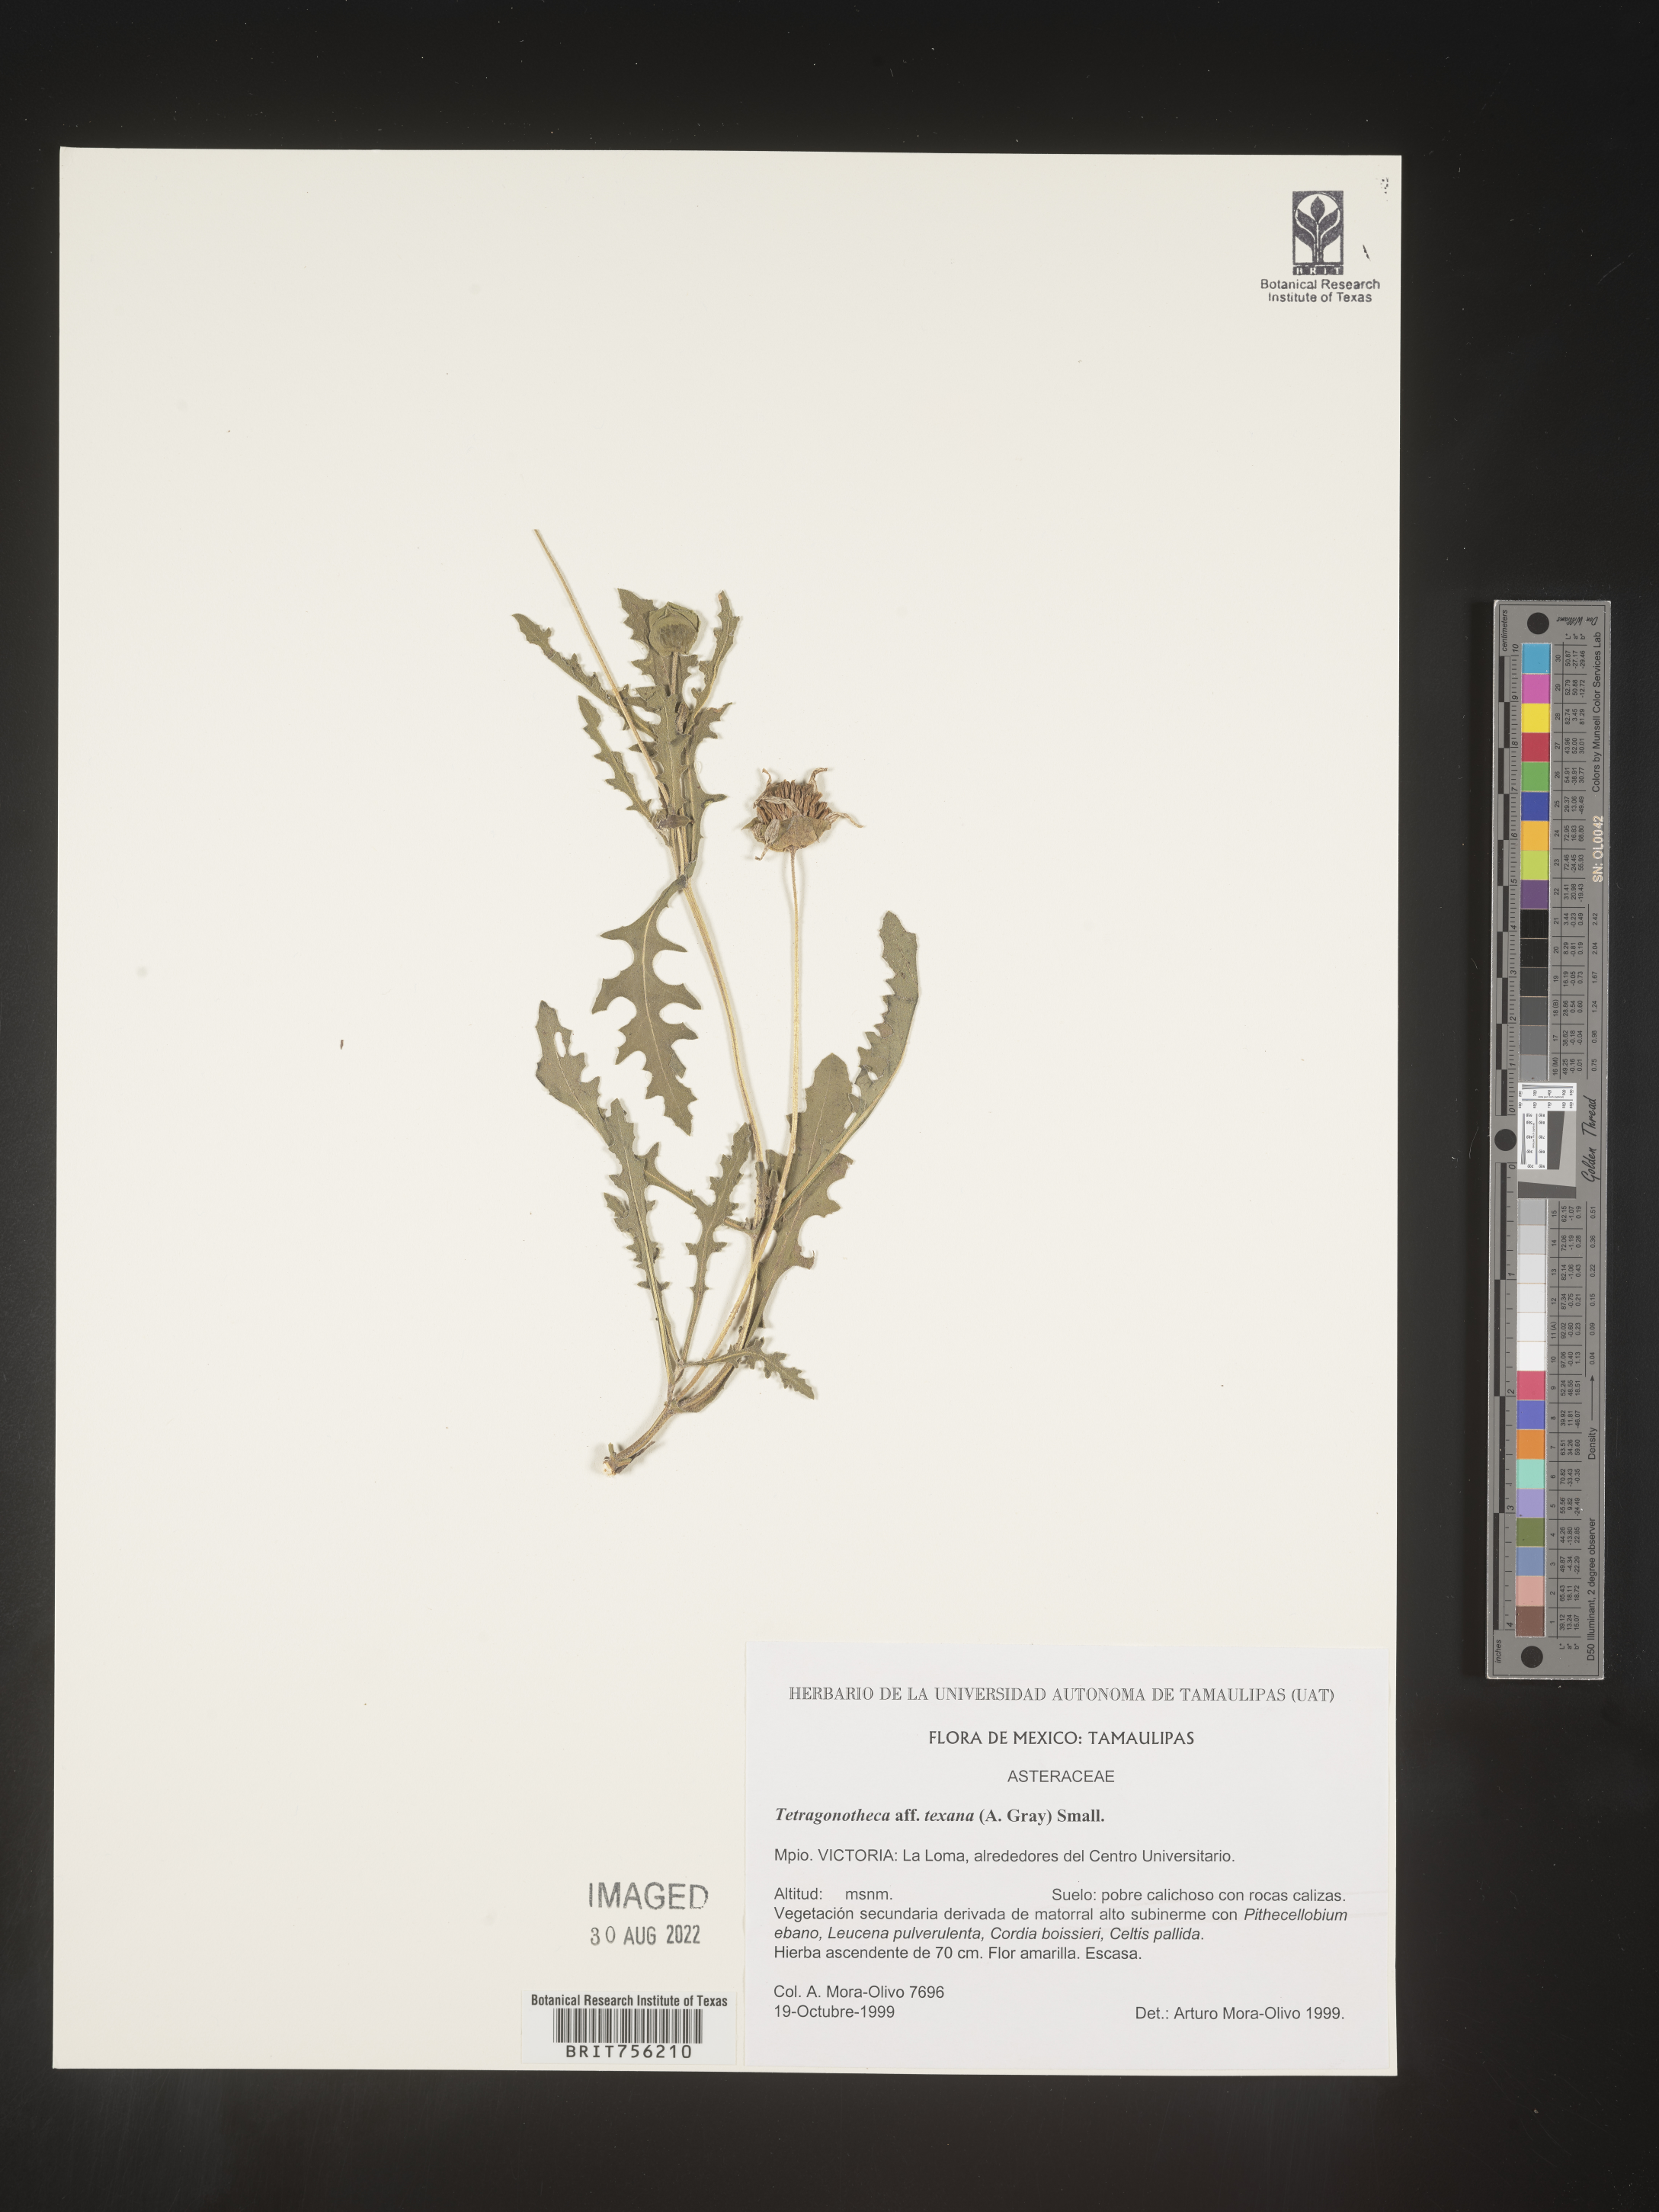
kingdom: Plantae
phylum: Tracheophyta
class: Magnoliopsida
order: Asterales
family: Asteraceae
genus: Tetragonotheca
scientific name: Tetragonotheca
